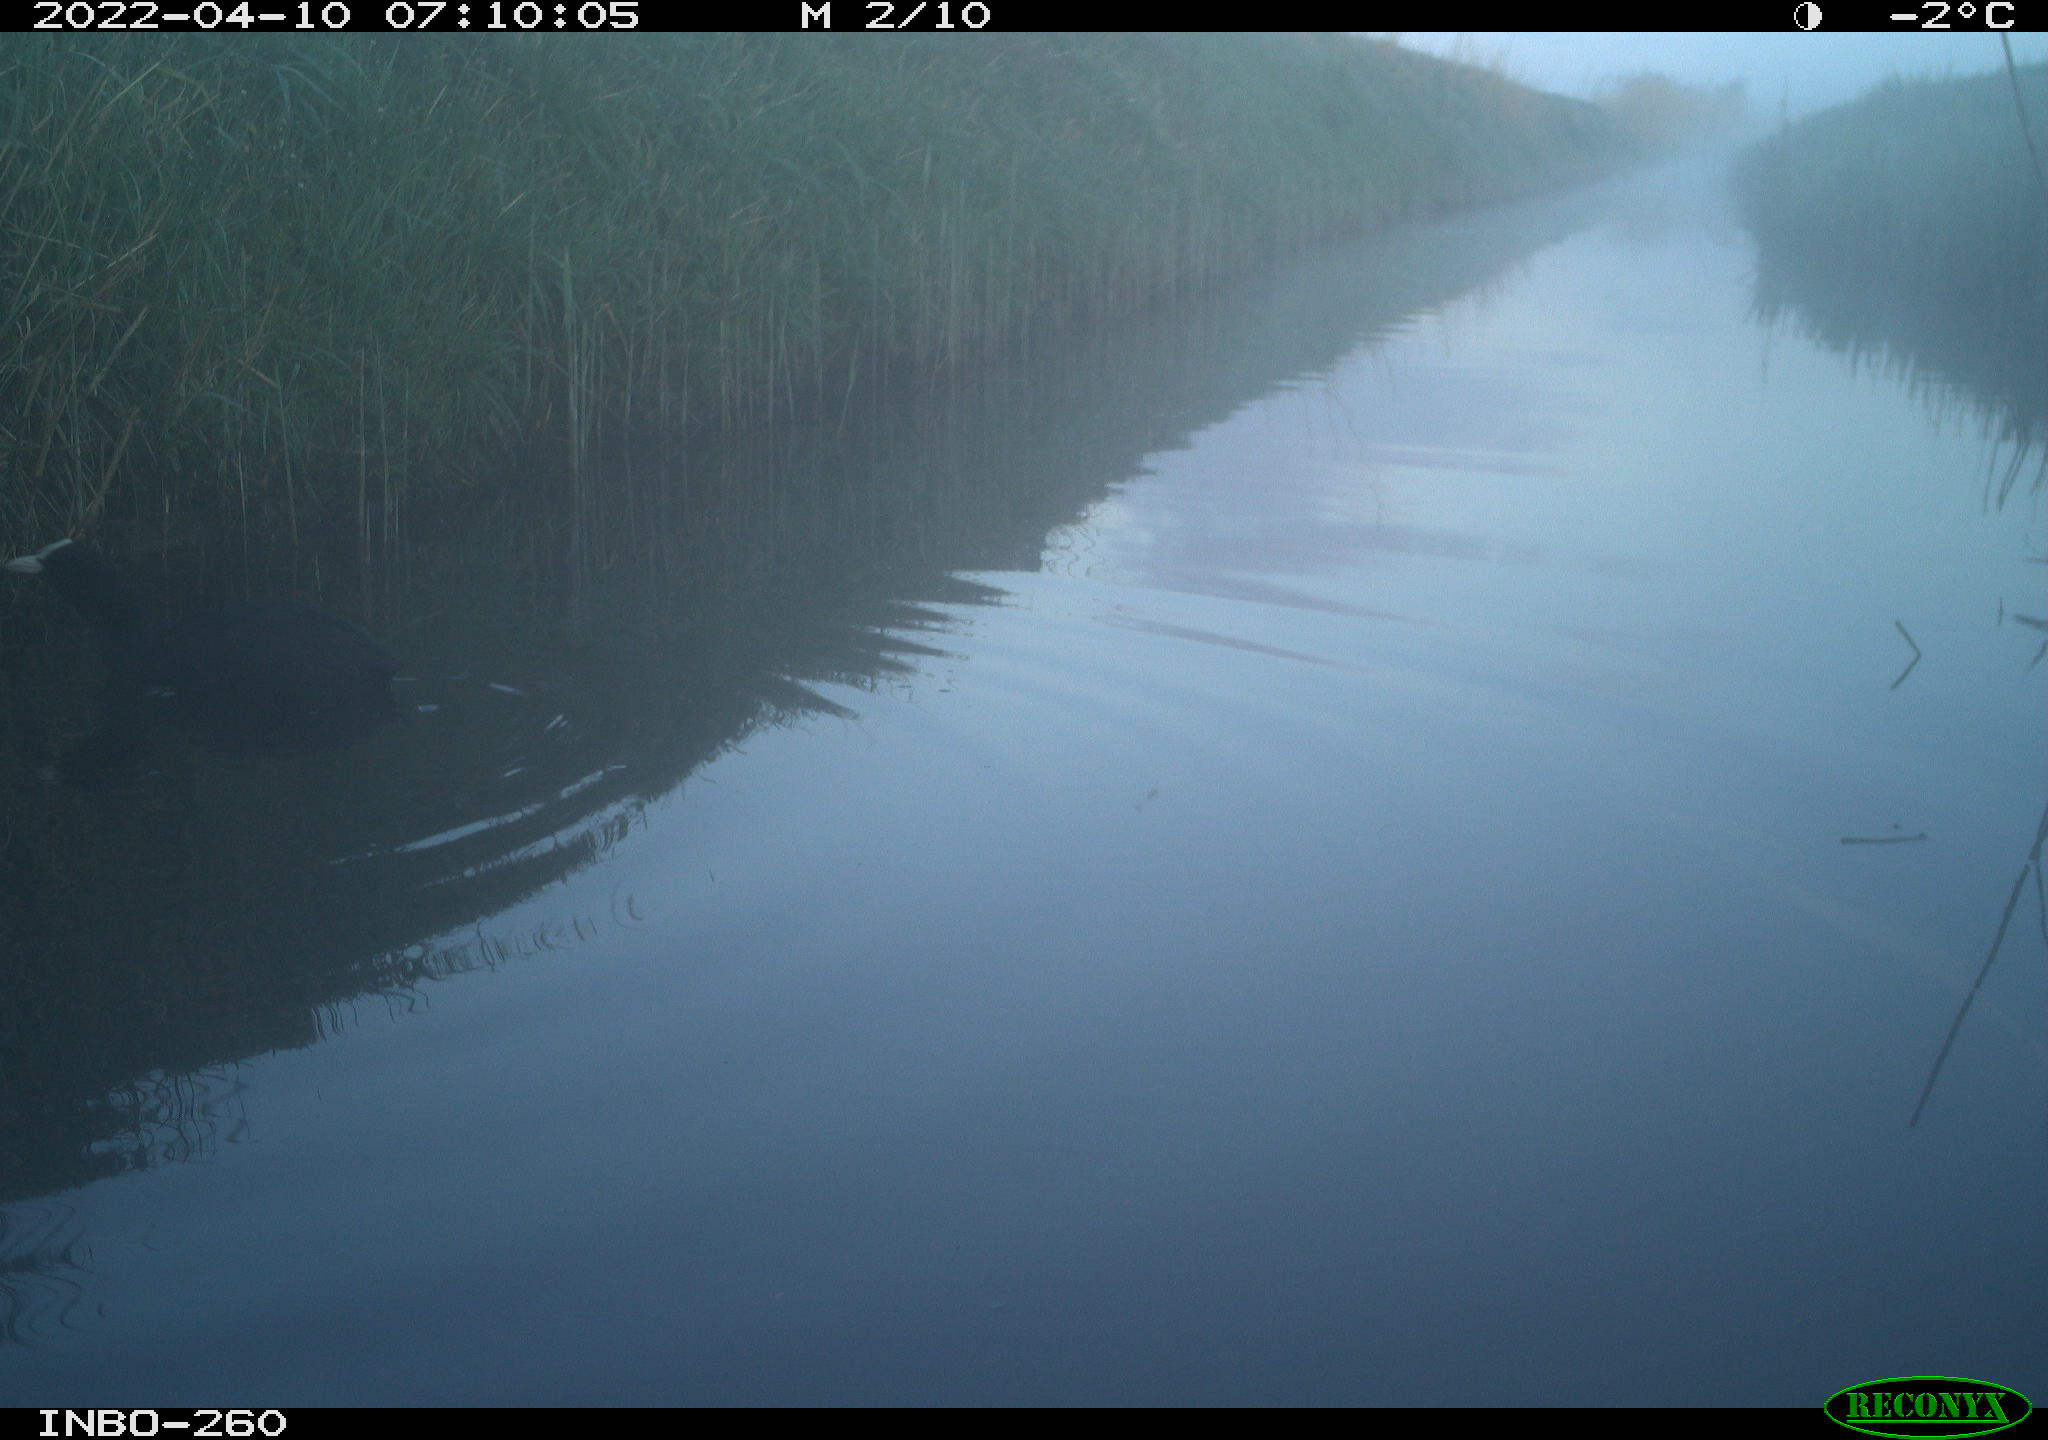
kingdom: Animalia
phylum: Chordata
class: Aves
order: Gruiformes
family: Rallidae
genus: Fulica
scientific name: Fulica atra
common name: Eurasian coot
